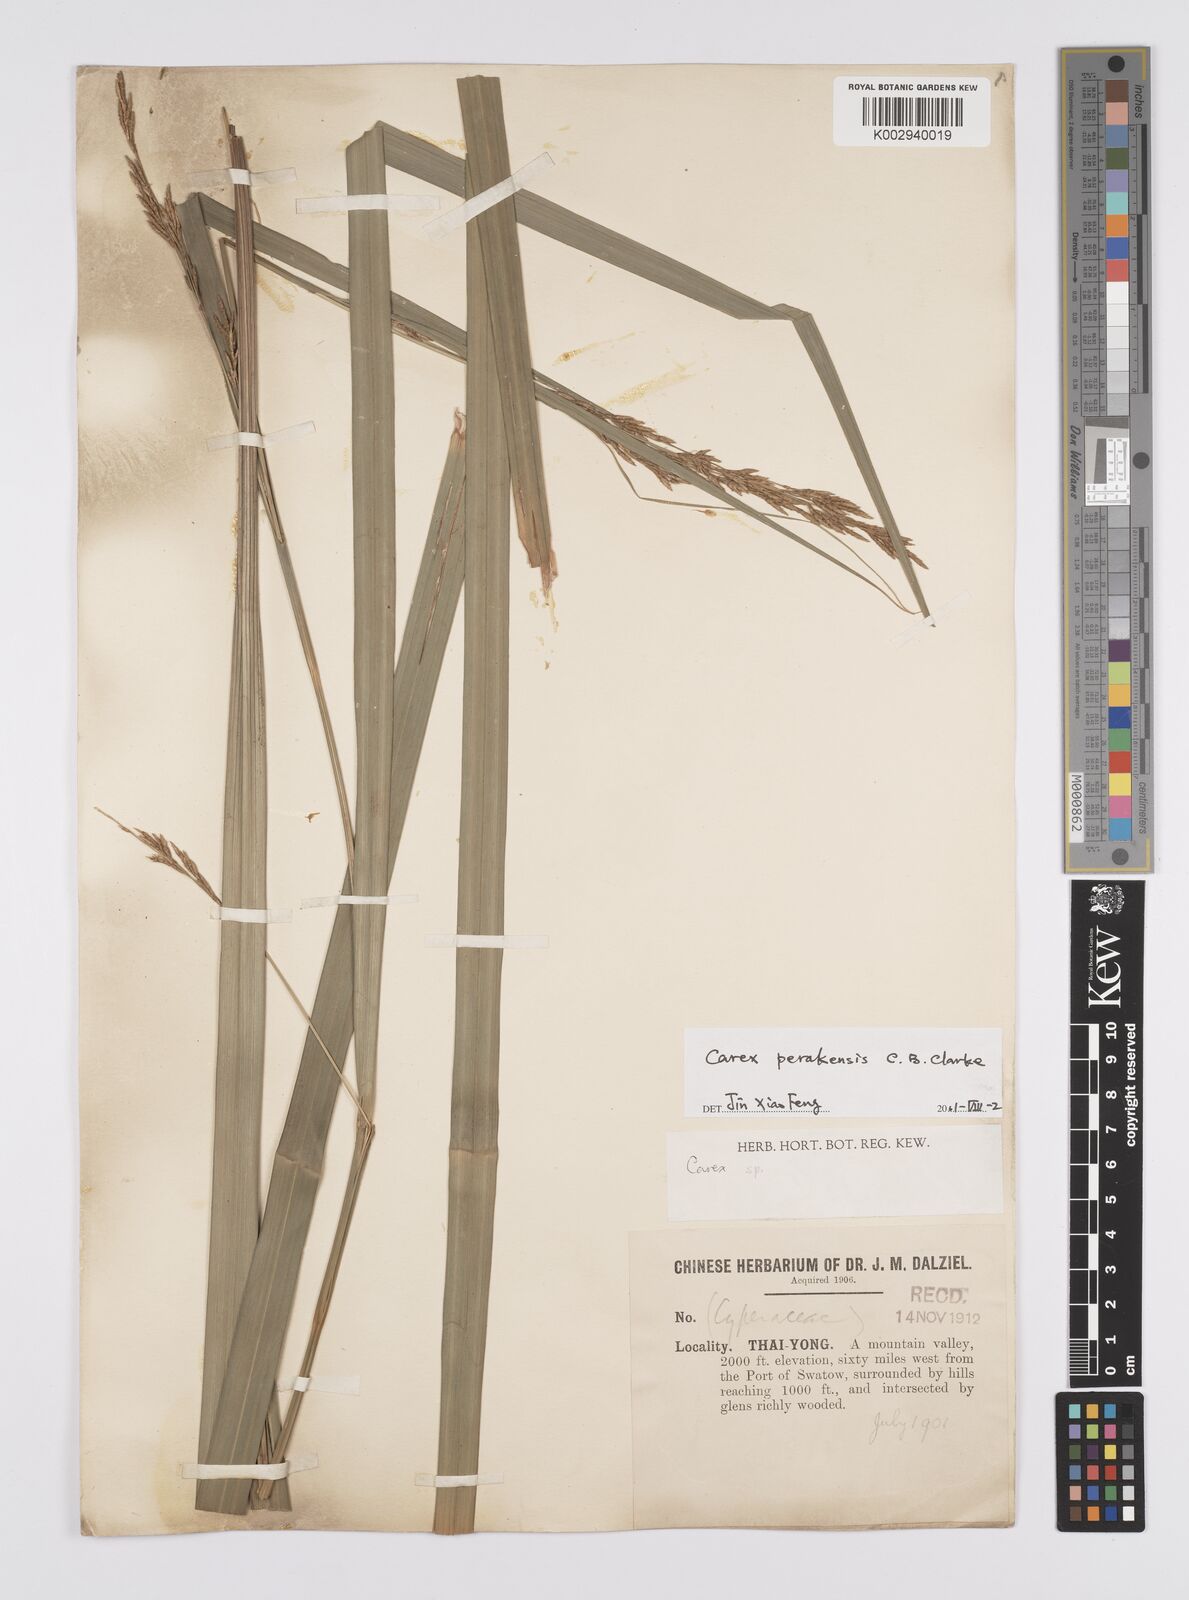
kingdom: Plantae
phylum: Tracheophyta
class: Liliopsida
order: Poales
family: Cyperaceae
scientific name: Cyperaceae
